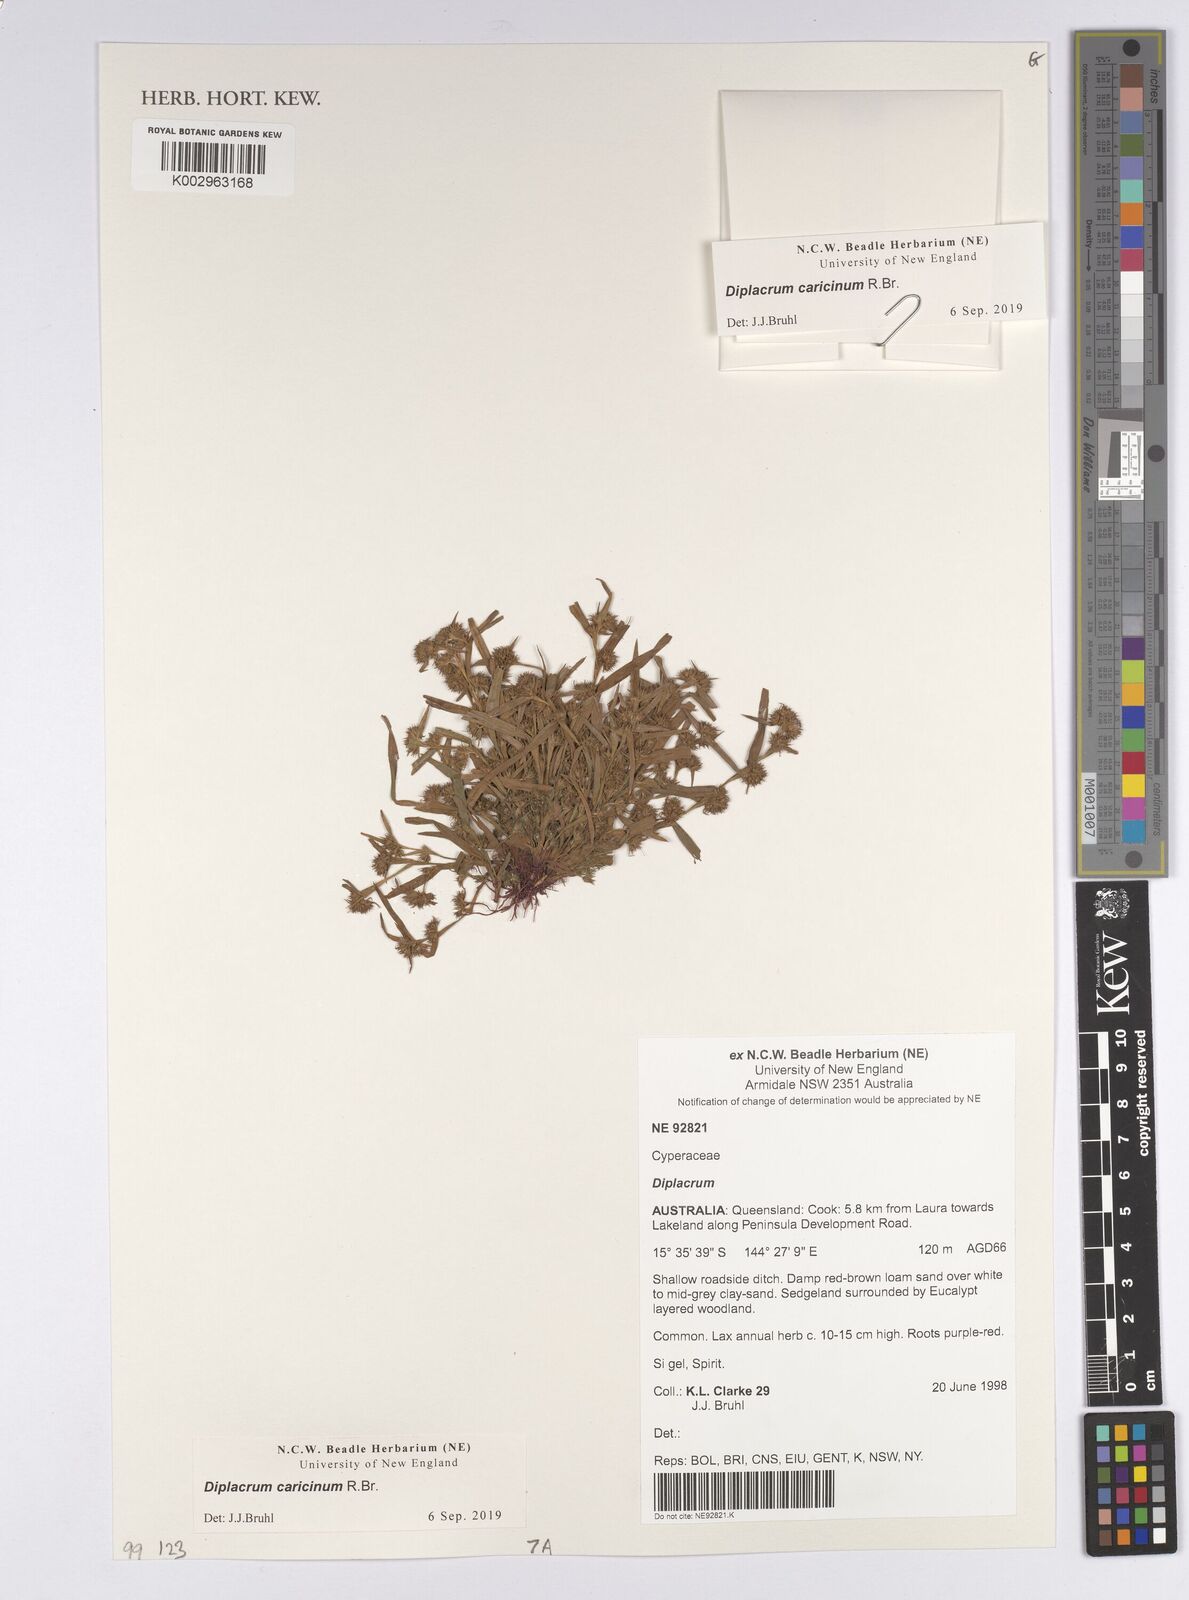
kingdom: Plantae
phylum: Tracheophyta
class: Liliopsida
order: Poales
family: Cyperaceae
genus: Diplacrum
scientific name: Diplacrum caricinum
